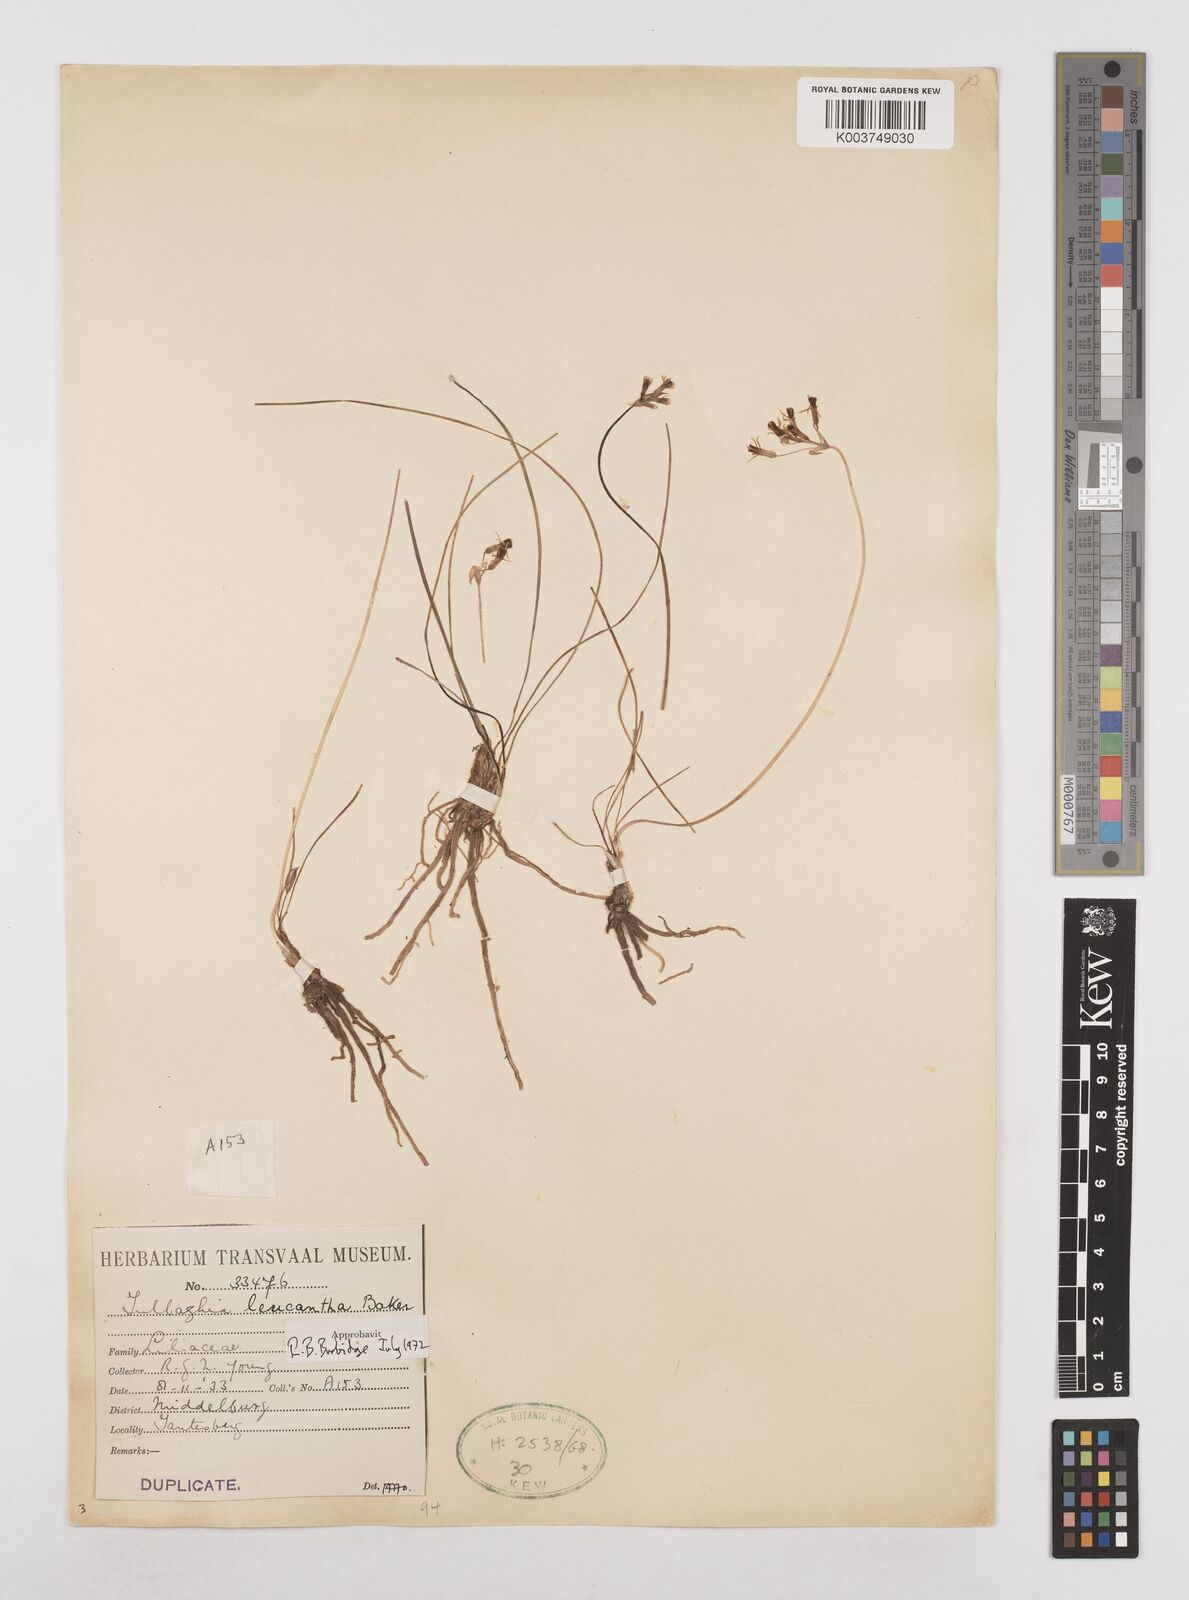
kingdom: Plantae
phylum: Tracheophyta
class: Liliopsida
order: Asparagales
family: Amaryllidaceae
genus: Tulbaghia
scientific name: Tulbaghia leucantha
